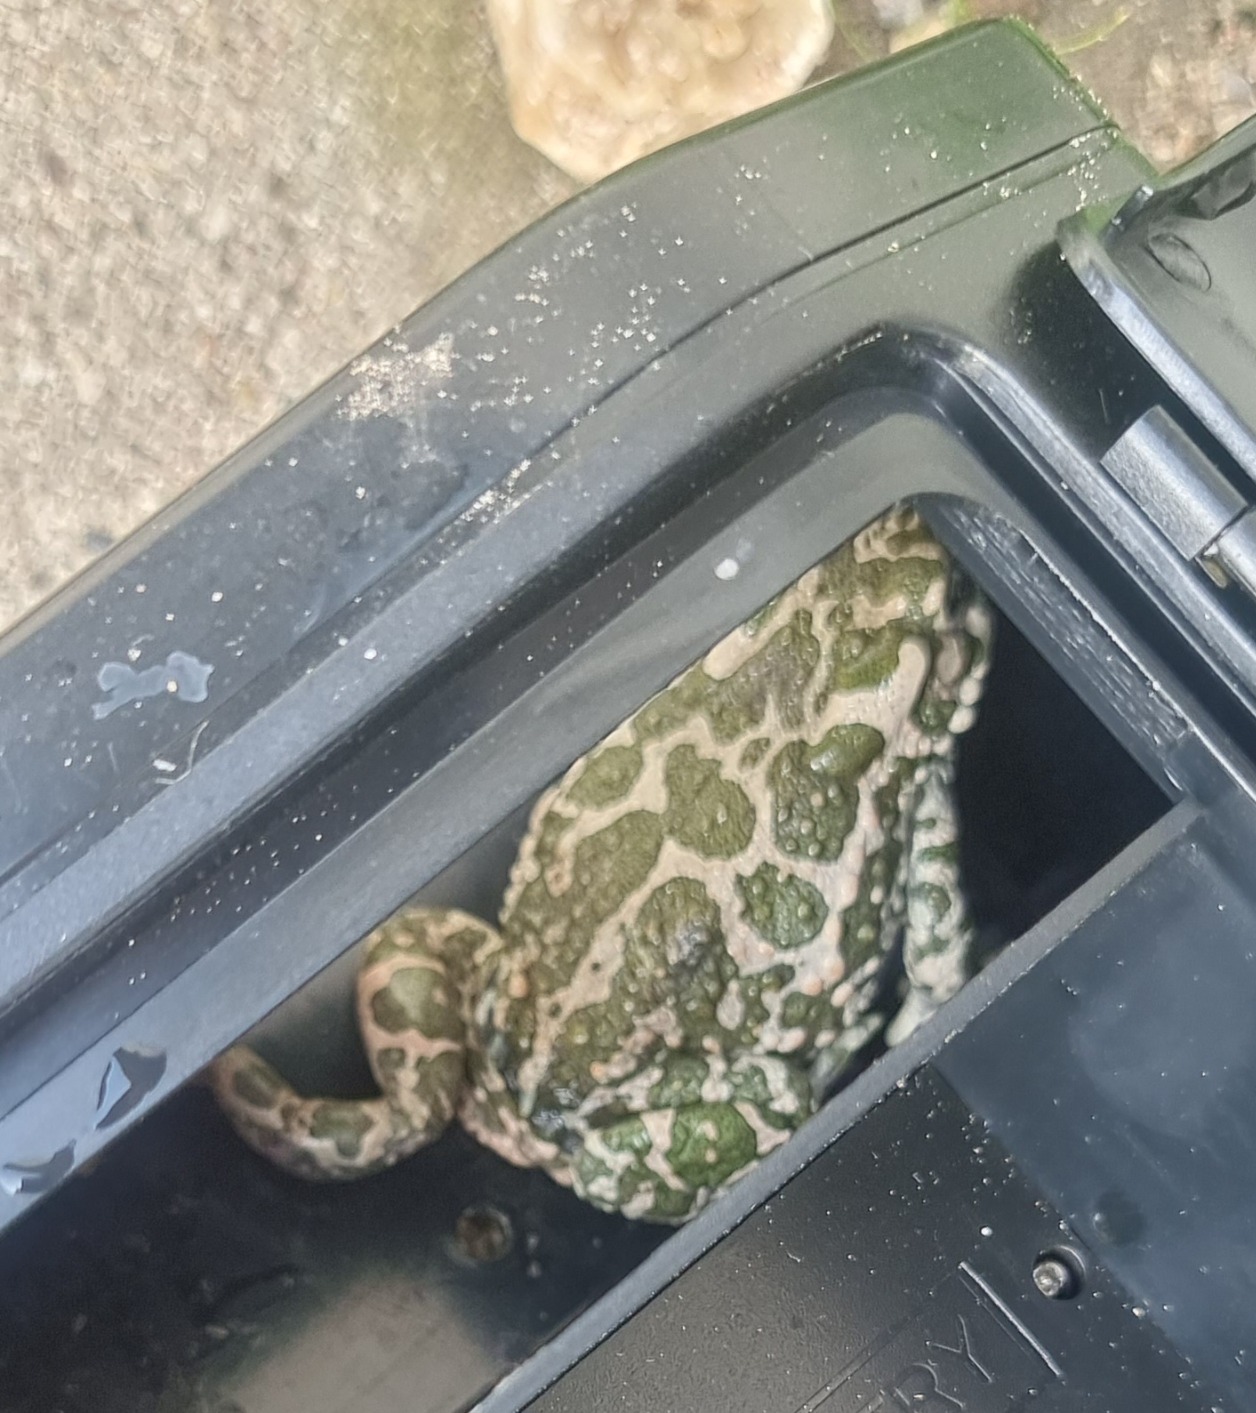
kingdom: Animalia
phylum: Chordata
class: Amphibia
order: Anura
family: Bufonidae
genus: Bufotes
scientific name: Bufotes viridis
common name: Grønbroget tudse
